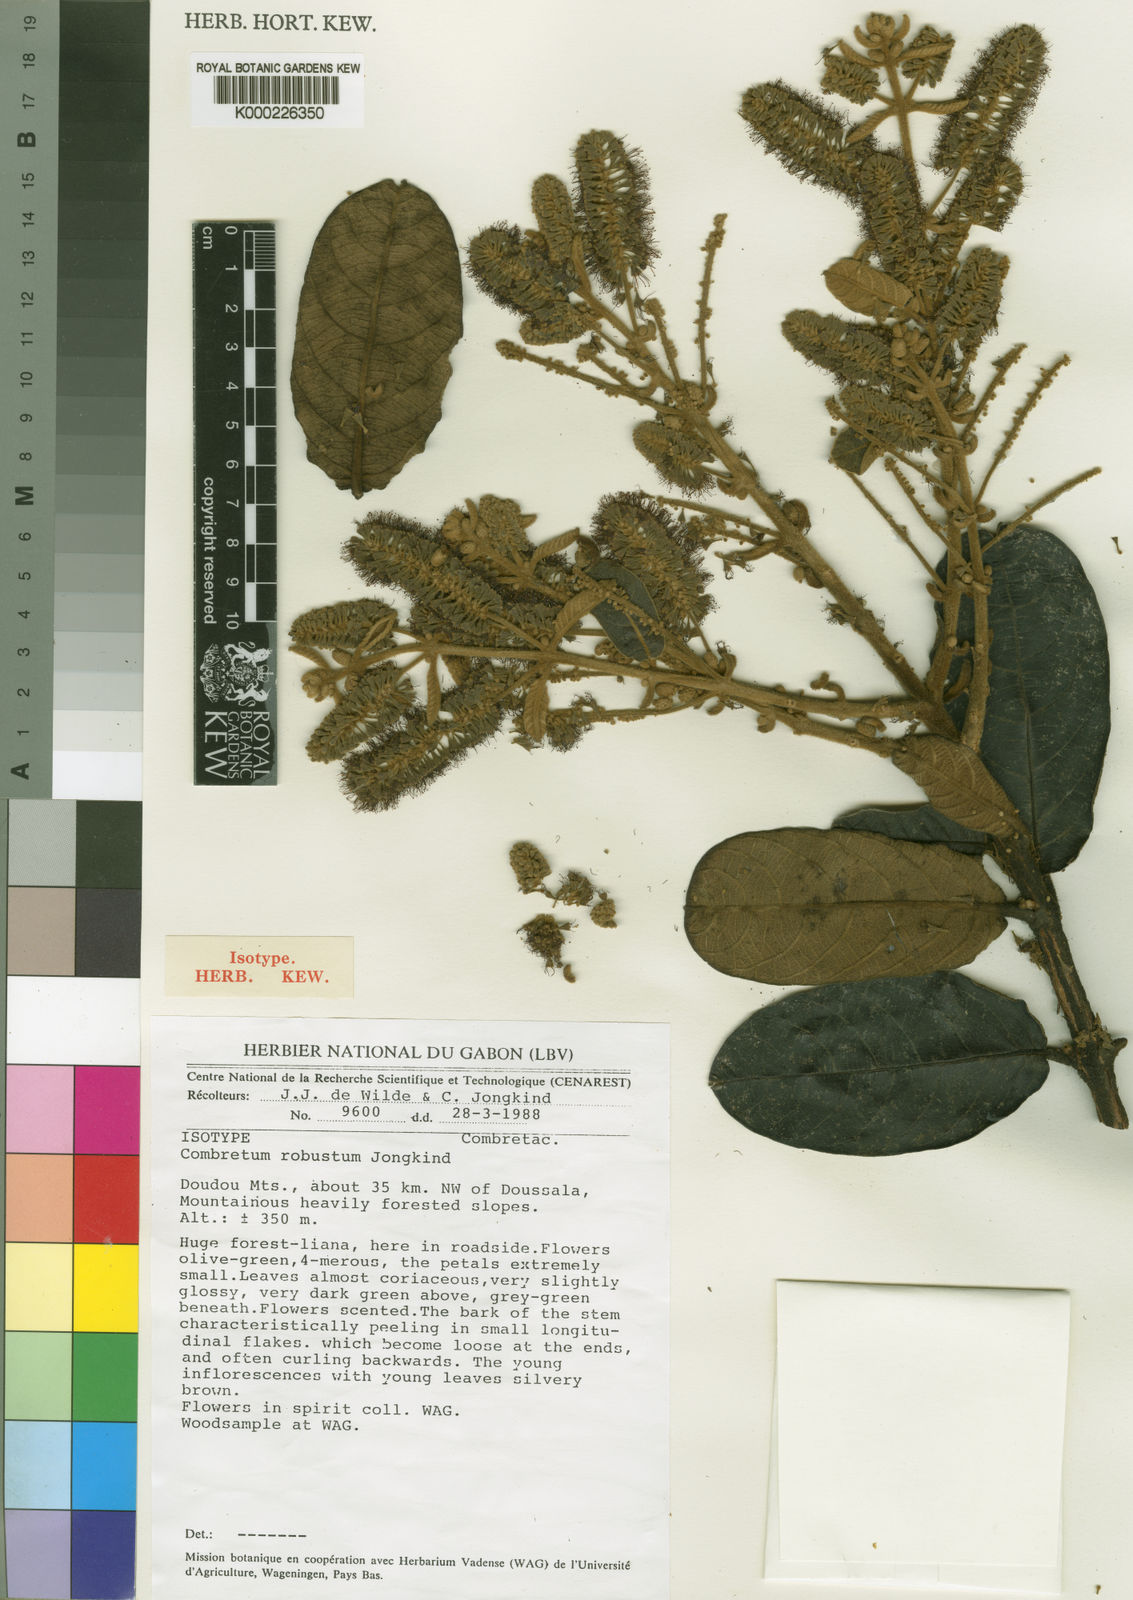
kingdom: Plantae
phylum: Tracheophyta
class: Magnoliopsida
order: Myrtales
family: Combretaceae
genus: Combretum
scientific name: Combretum robustum
